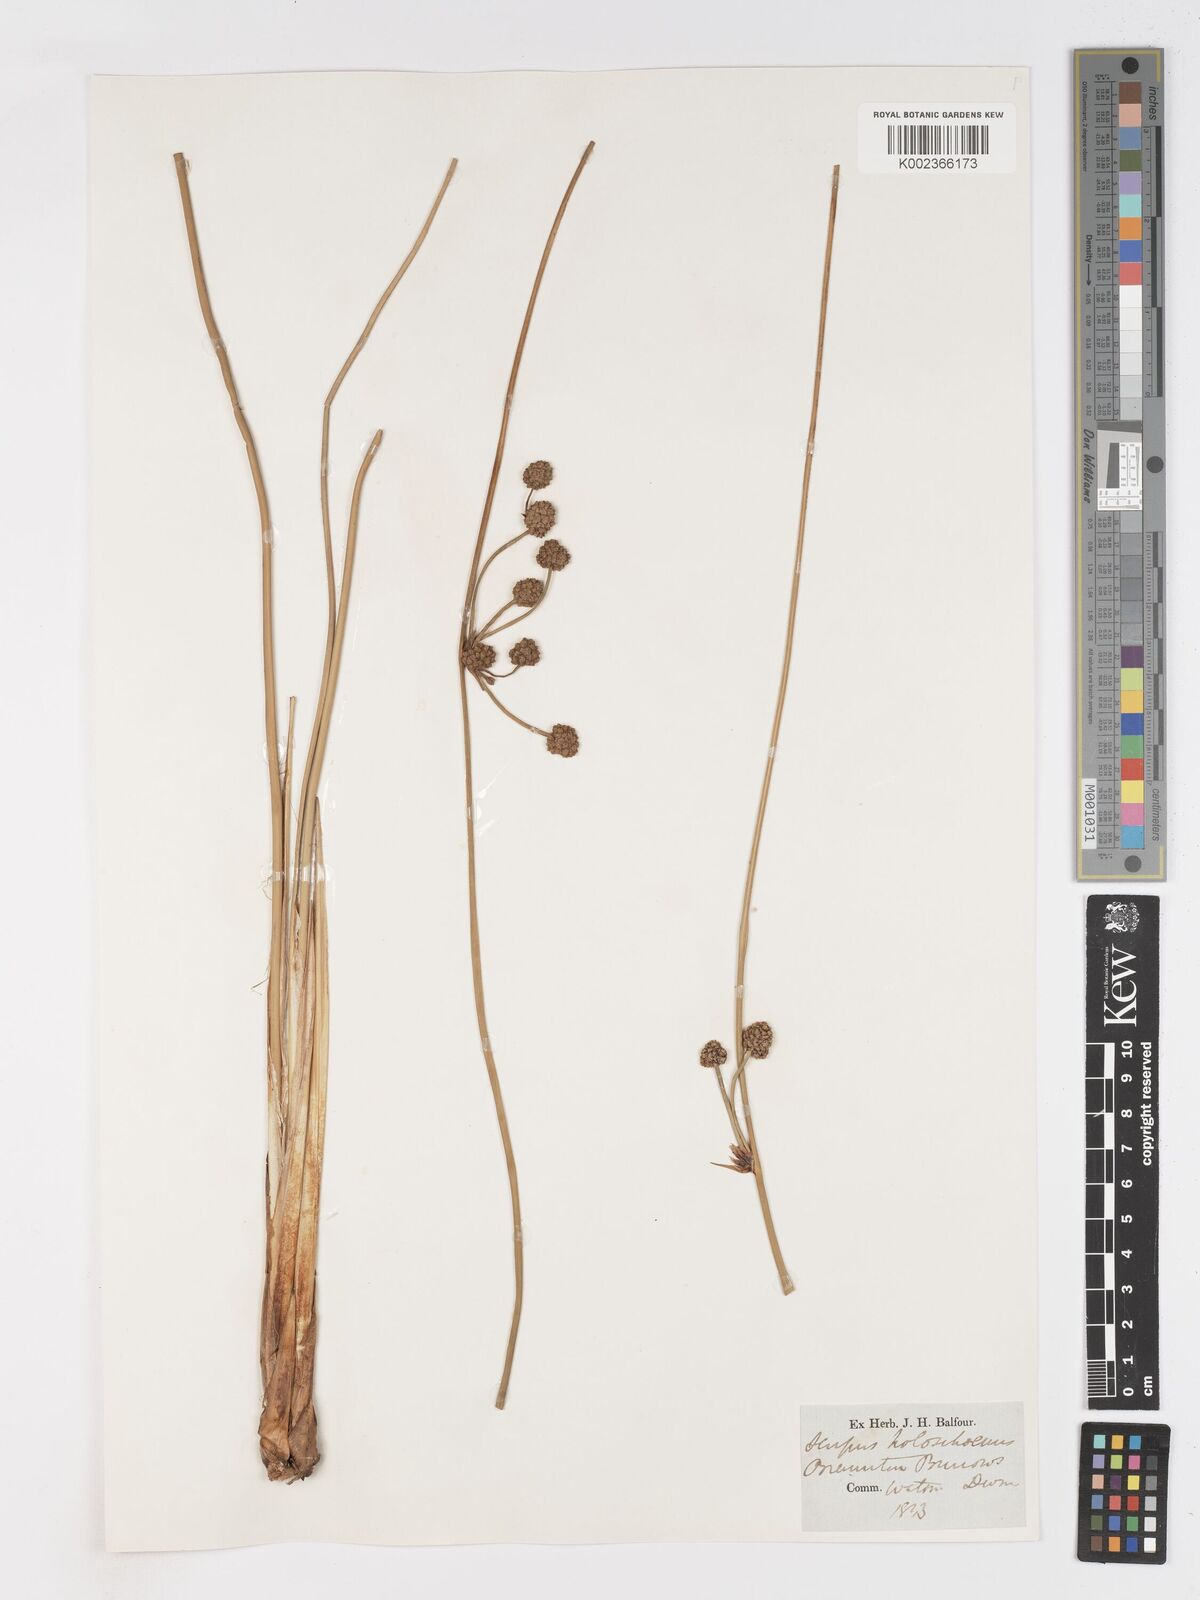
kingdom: Plantae
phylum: Tracheophyta
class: Liliopsida
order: Poales
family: Cyperaceae
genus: Scirpoides
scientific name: Scirpoides holoschoenus
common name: Round-headed club-rush
